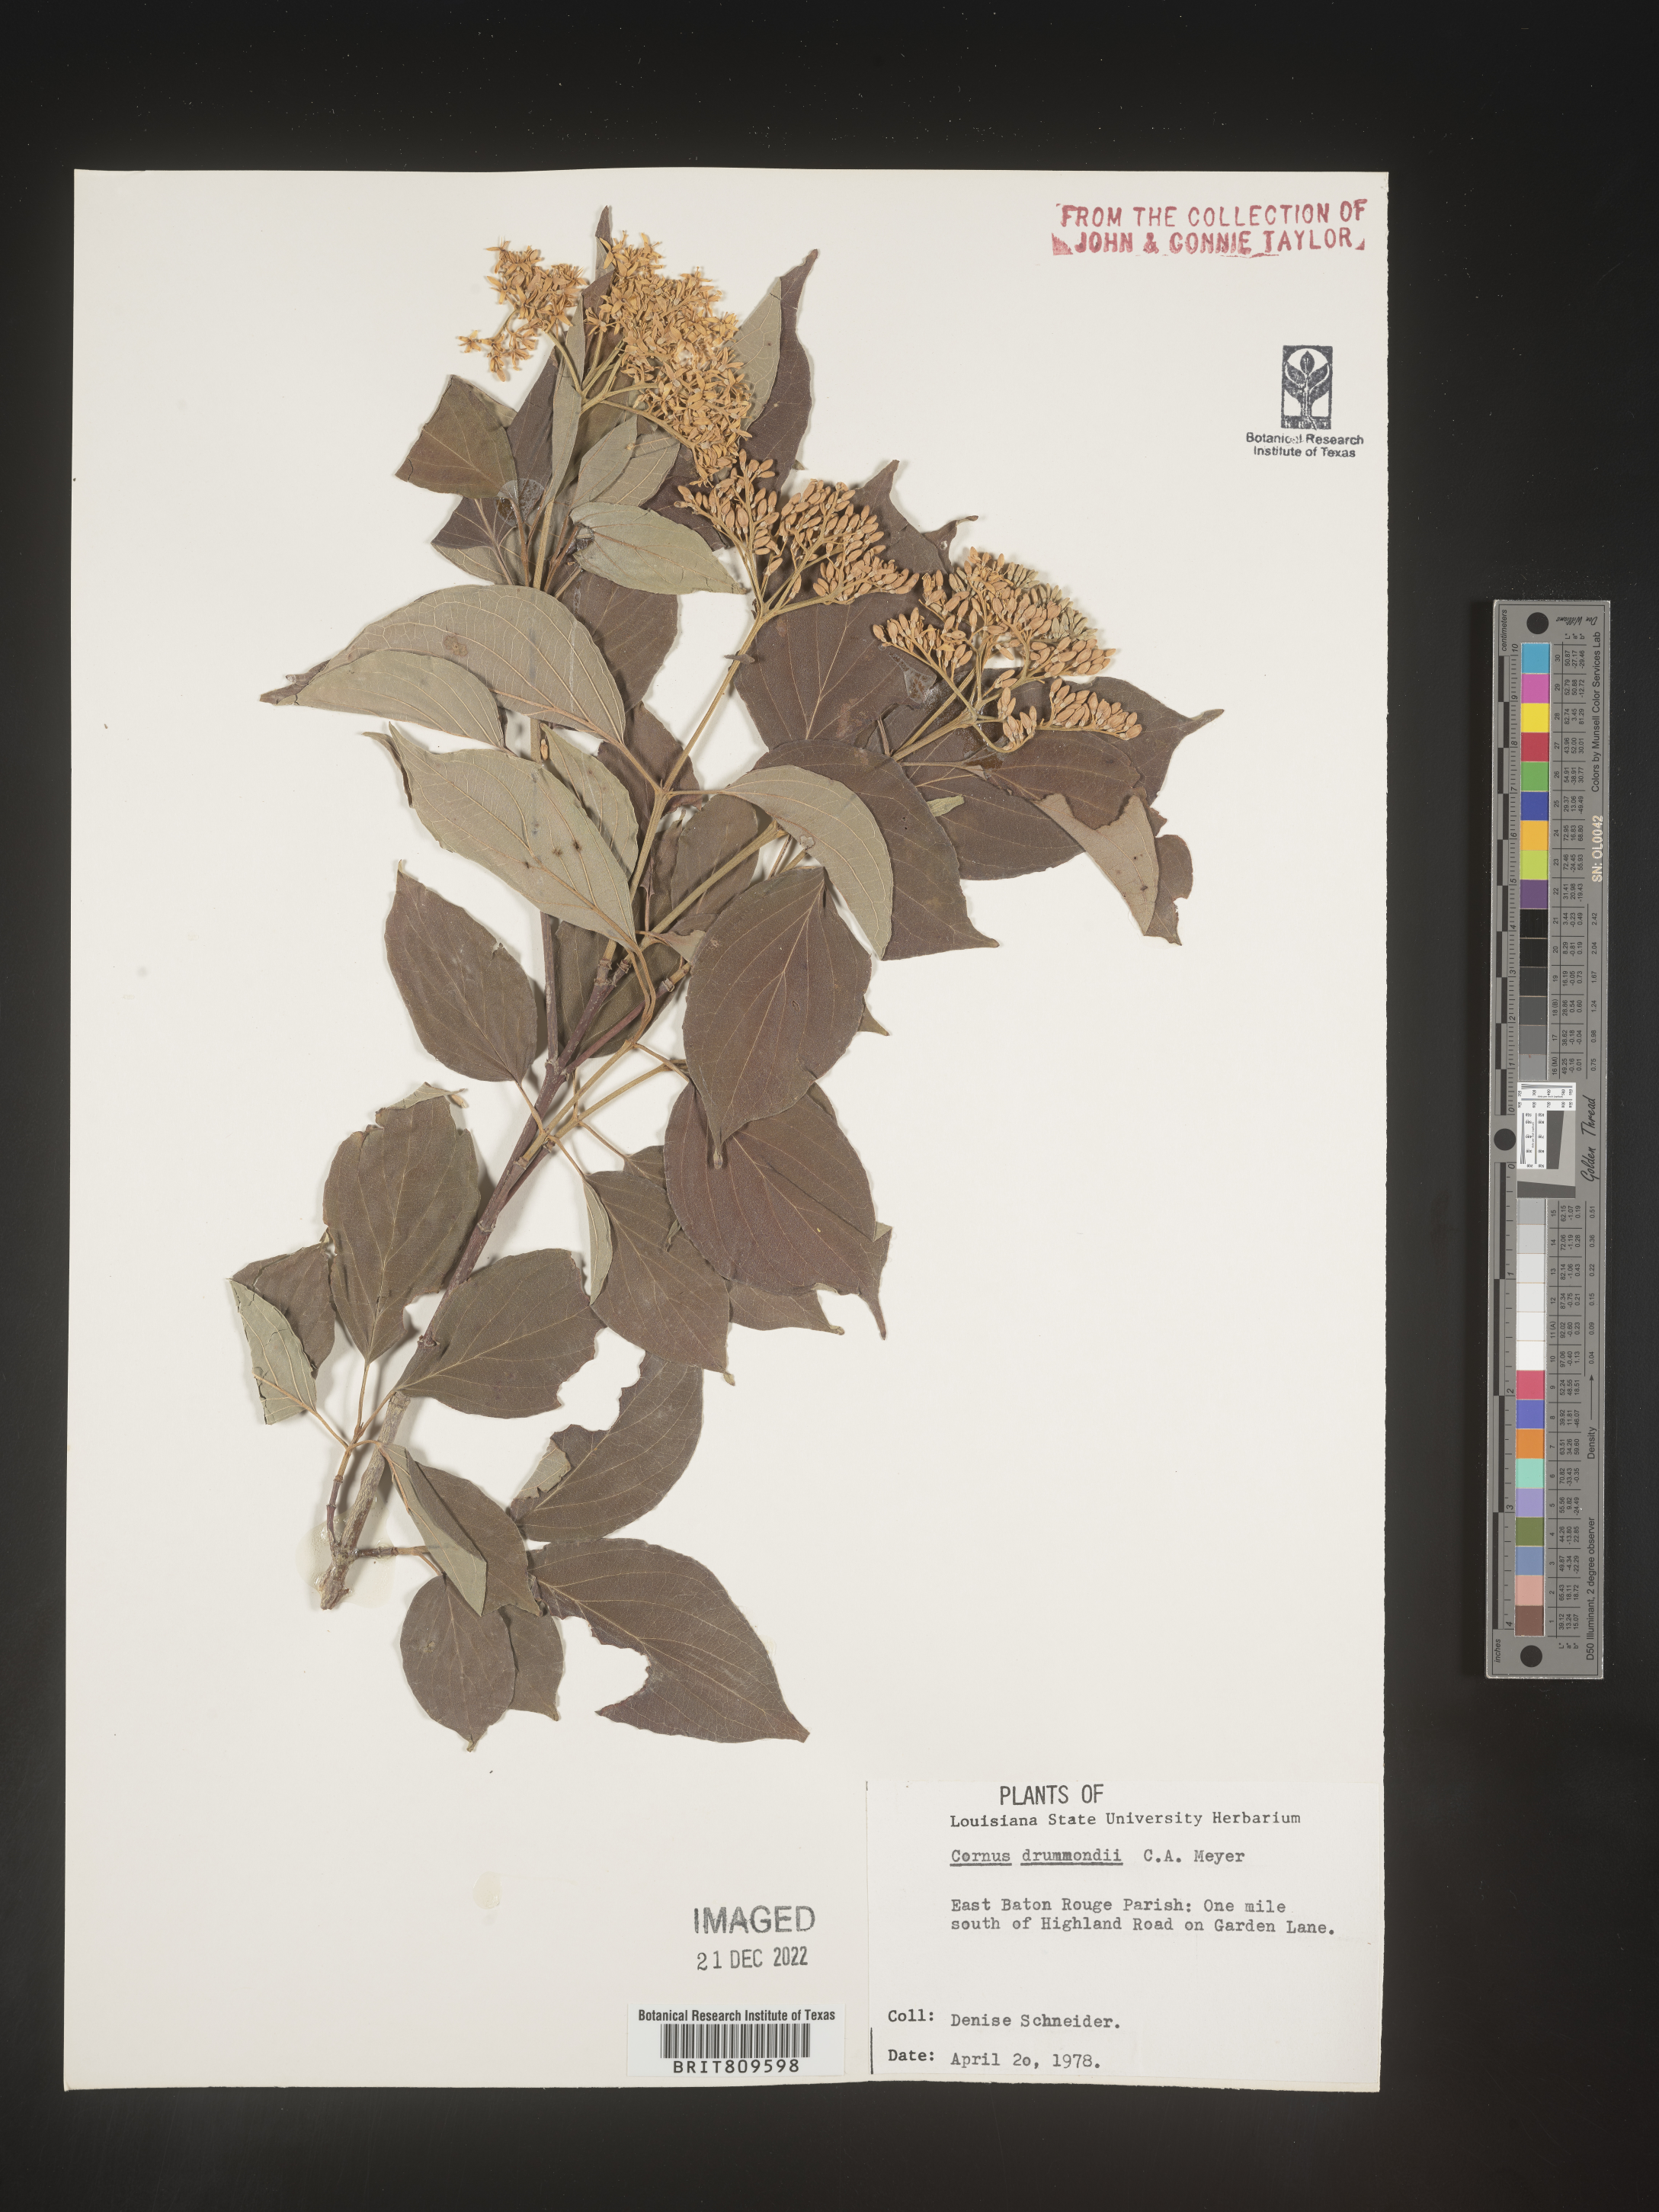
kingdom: Plantae
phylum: Tracheophyta
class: Magnoliopsida
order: Cornales
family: Cornaceae
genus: Cornus
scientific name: Cornus drummondii
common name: Rough-leaf dogwood
